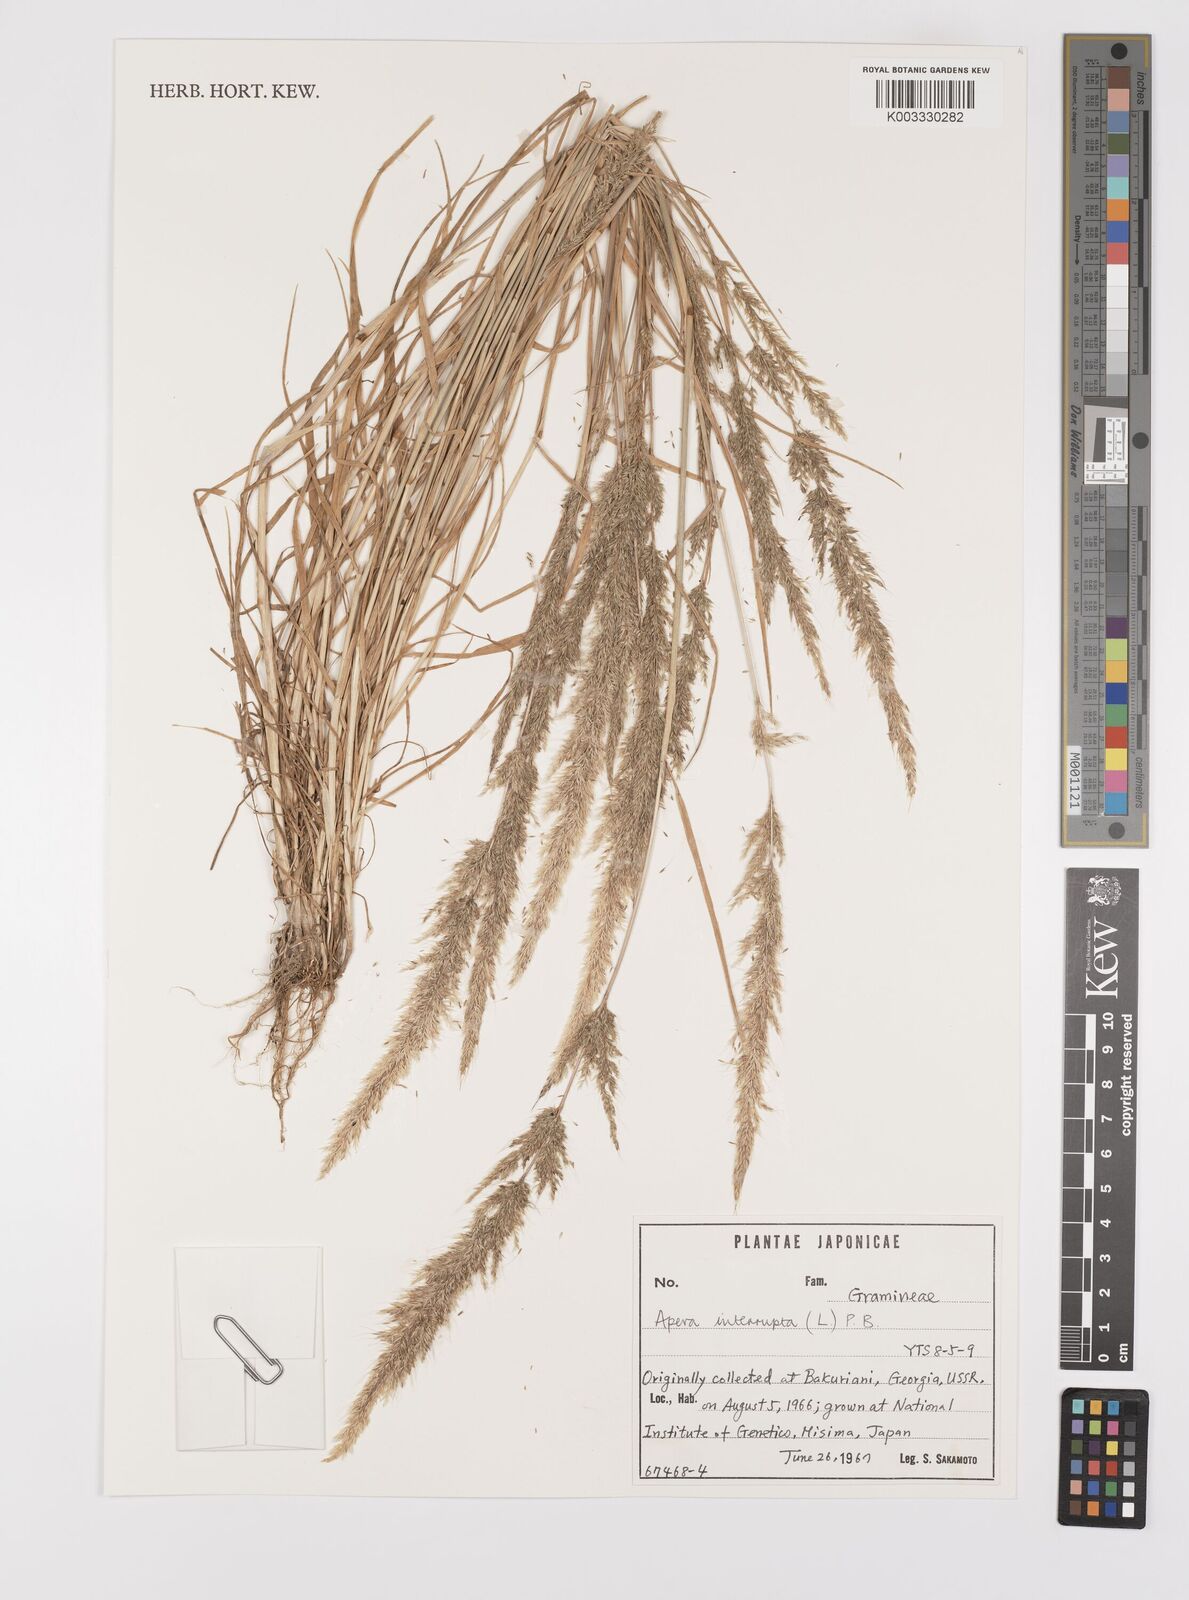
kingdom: Plantae
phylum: Tracheophyta
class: Liliopsida
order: Poales
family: Poaceae
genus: Apera
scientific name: Apera interrupta
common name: Dense silky-bent
